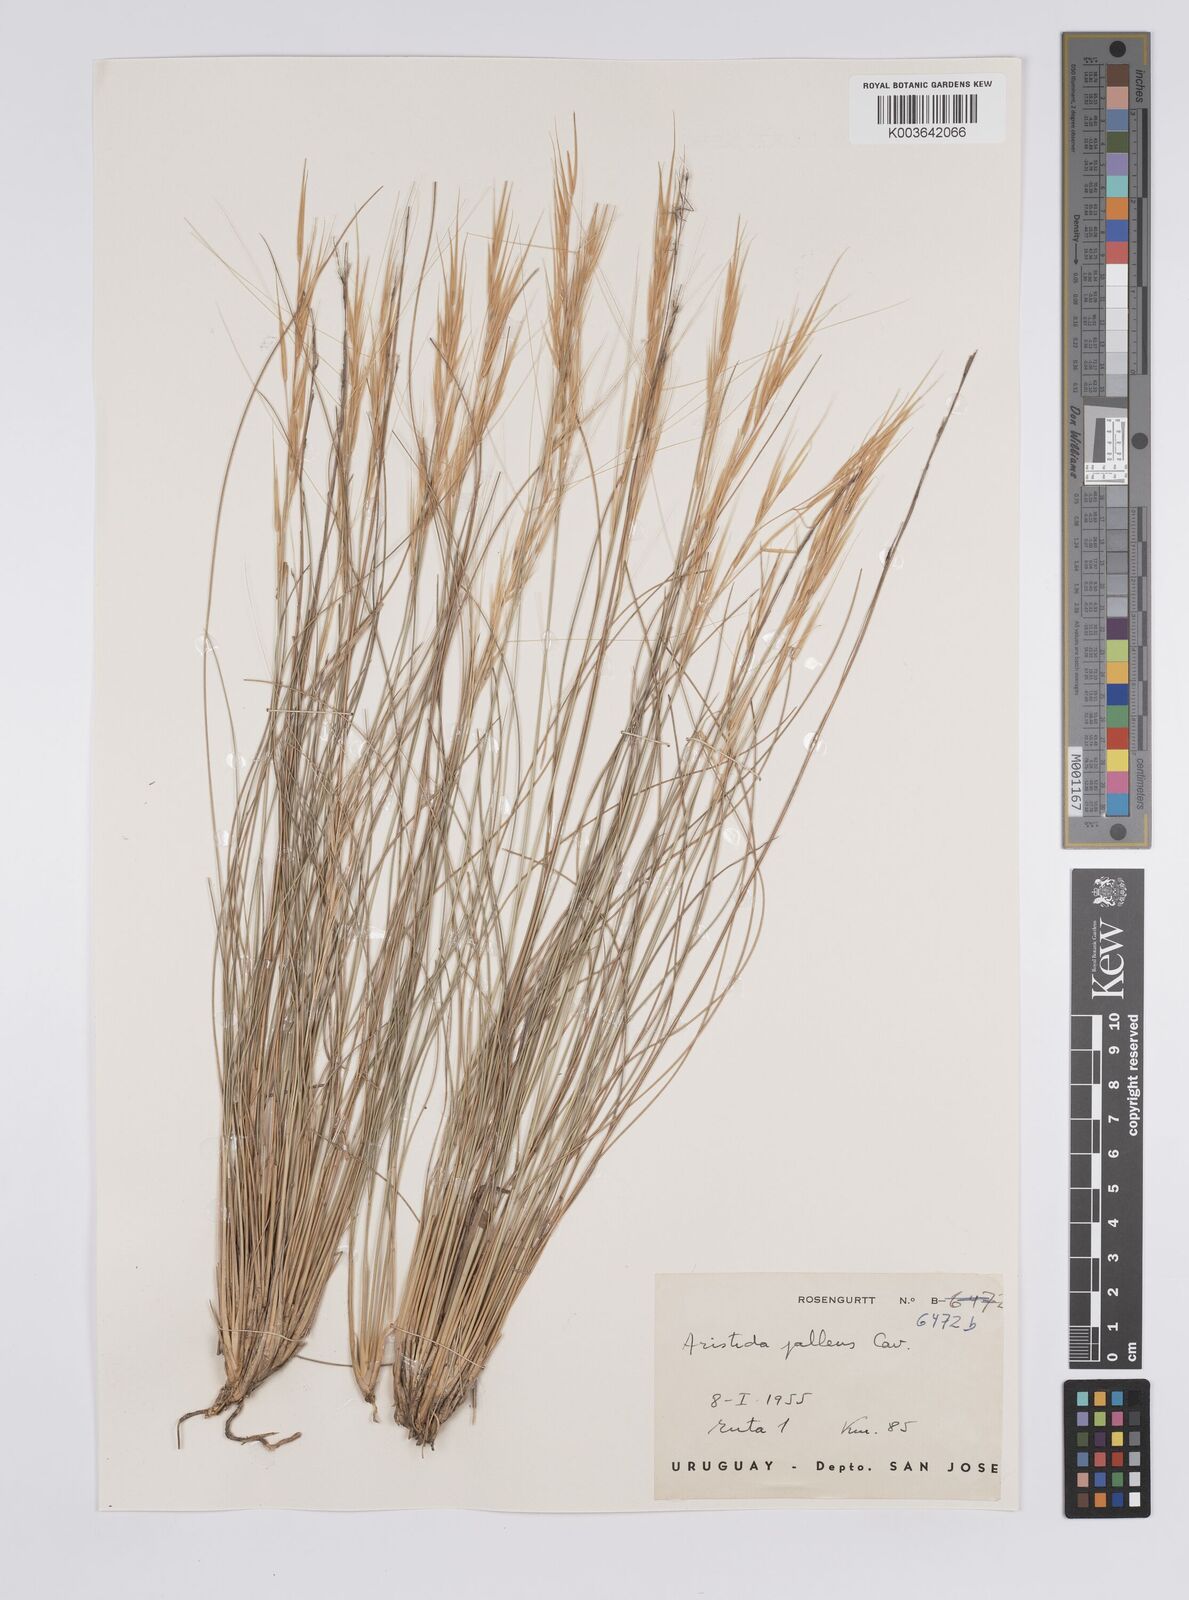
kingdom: Plantae
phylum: Tracheophyta
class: Liliopsida
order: Poales
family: Poaceae
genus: Aristida
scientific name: Aristida pallens
